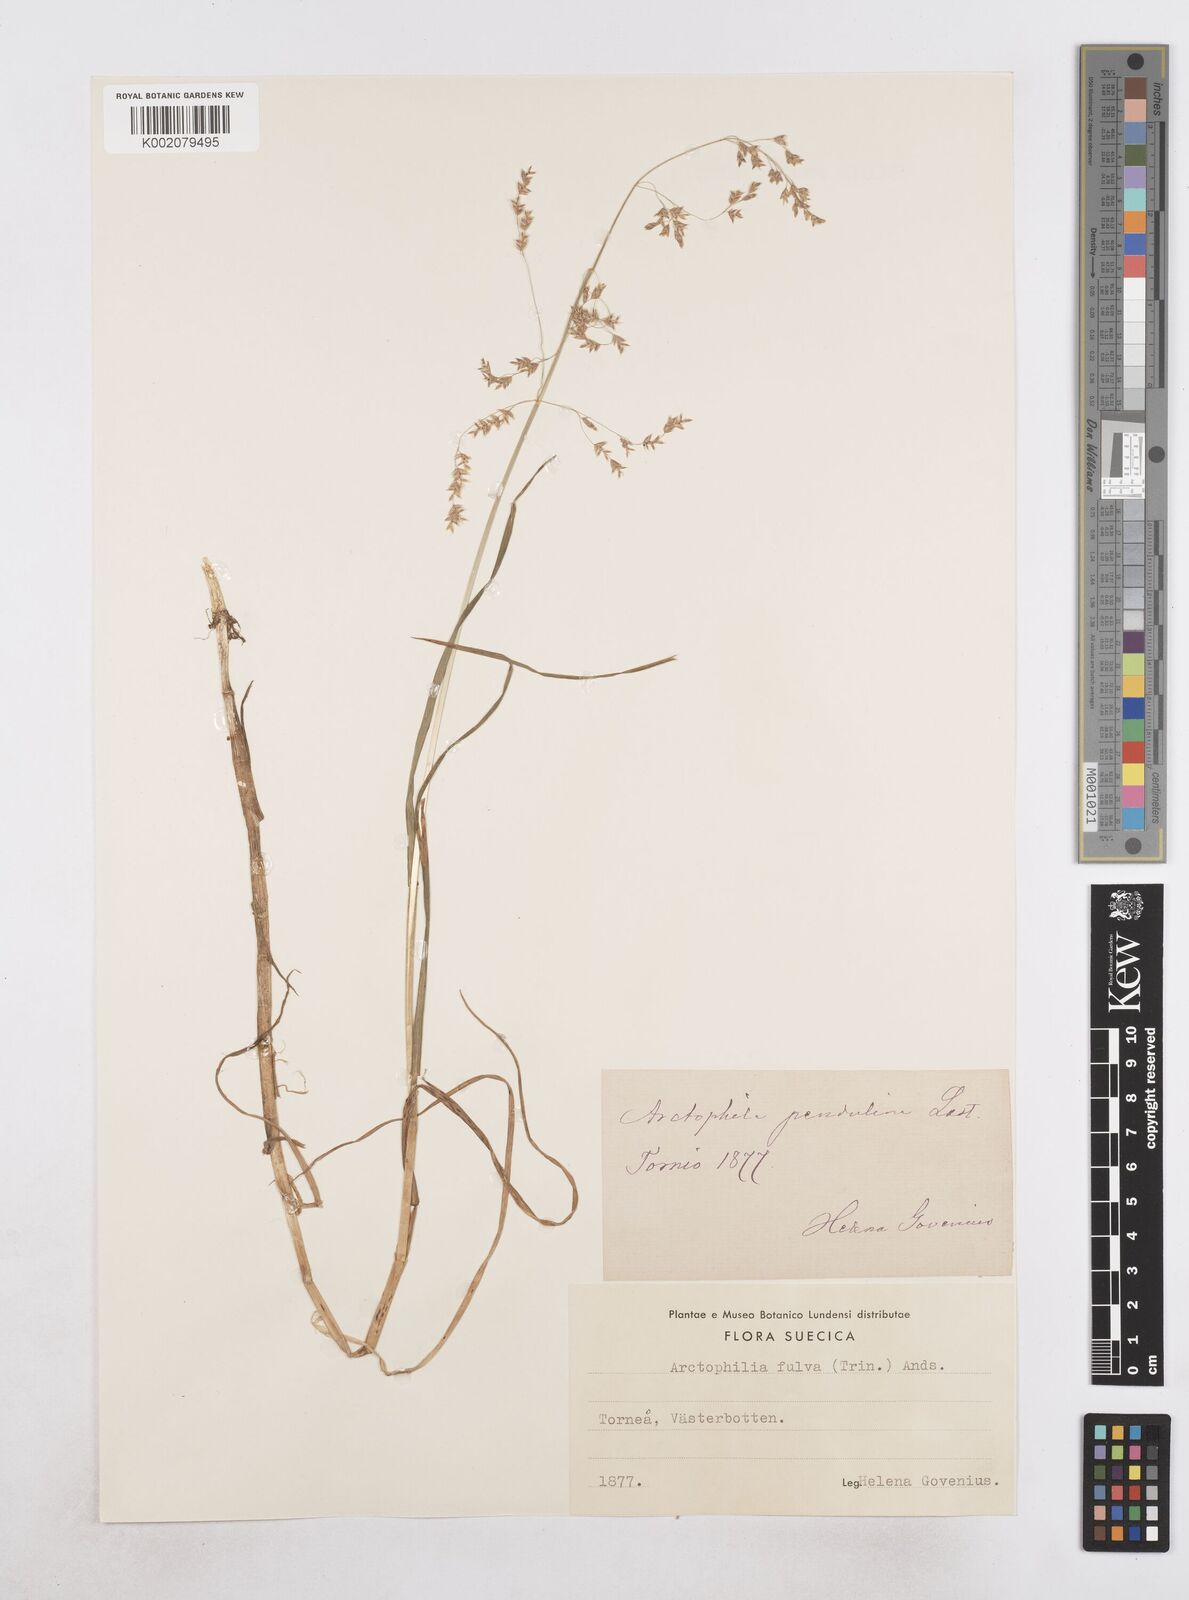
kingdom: Plantae
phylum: Tracheophyta
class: Liliopsida
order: Poales
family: Poaceae
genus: Dupontia
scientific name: Dupontia fulva
